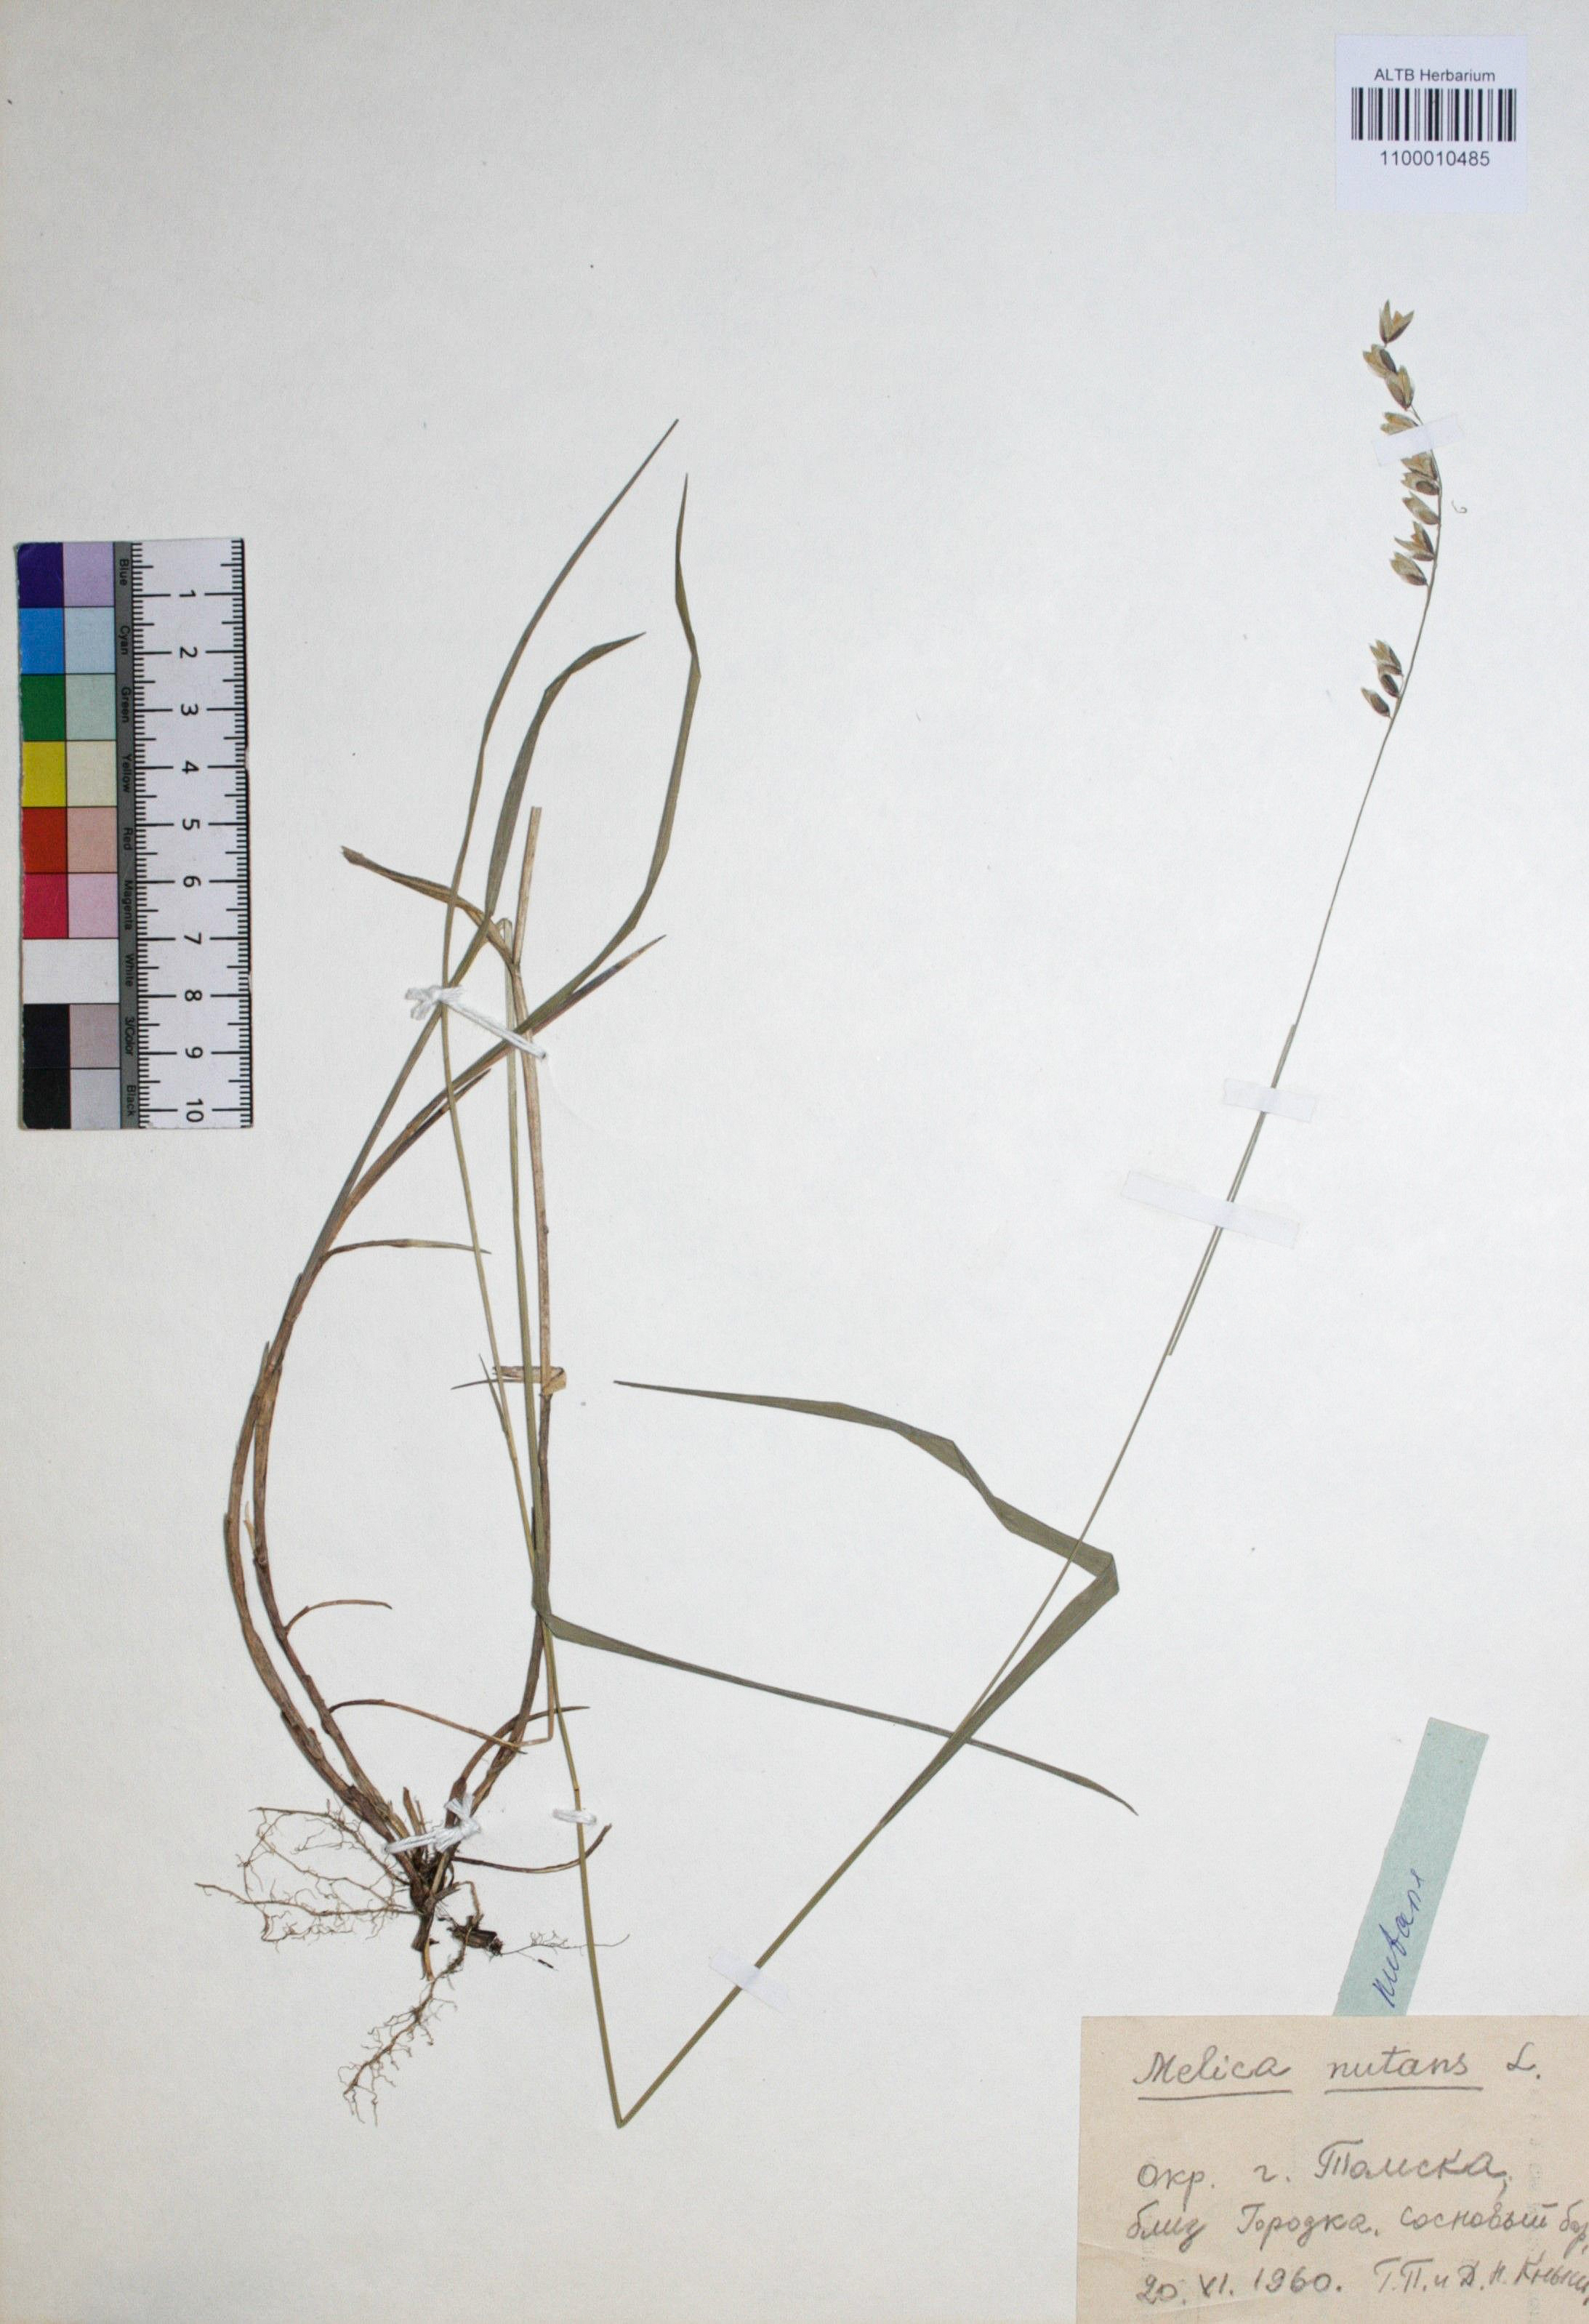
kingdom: Plantae
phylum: Tracheophyta
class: Liliopsida
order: Poales
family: Poaceae
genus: Melica
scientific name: Melica nutans
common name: Mountain melick
